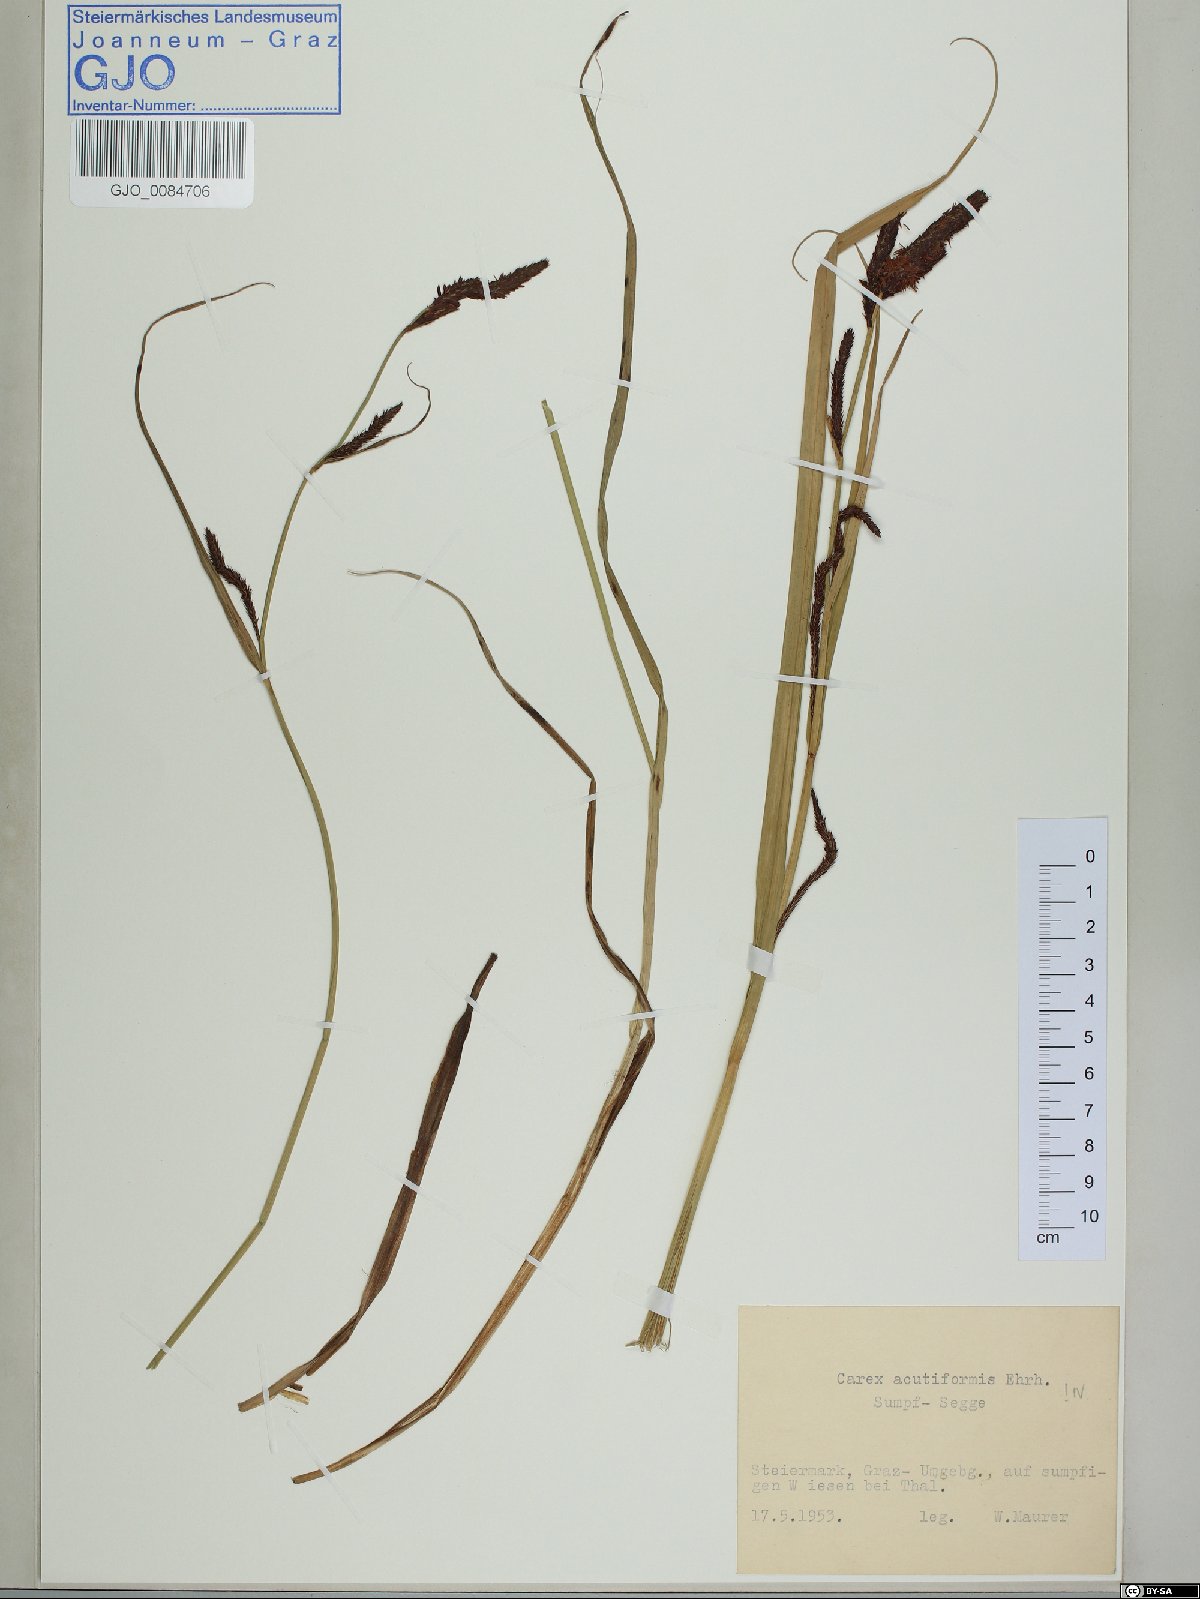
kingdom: Plantae
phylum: Tracheophyta
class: Liliopsida
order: Poales
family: Cyperaceae
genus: Carex
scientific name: Carex acutiformis
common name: Lesser pond-sedge
